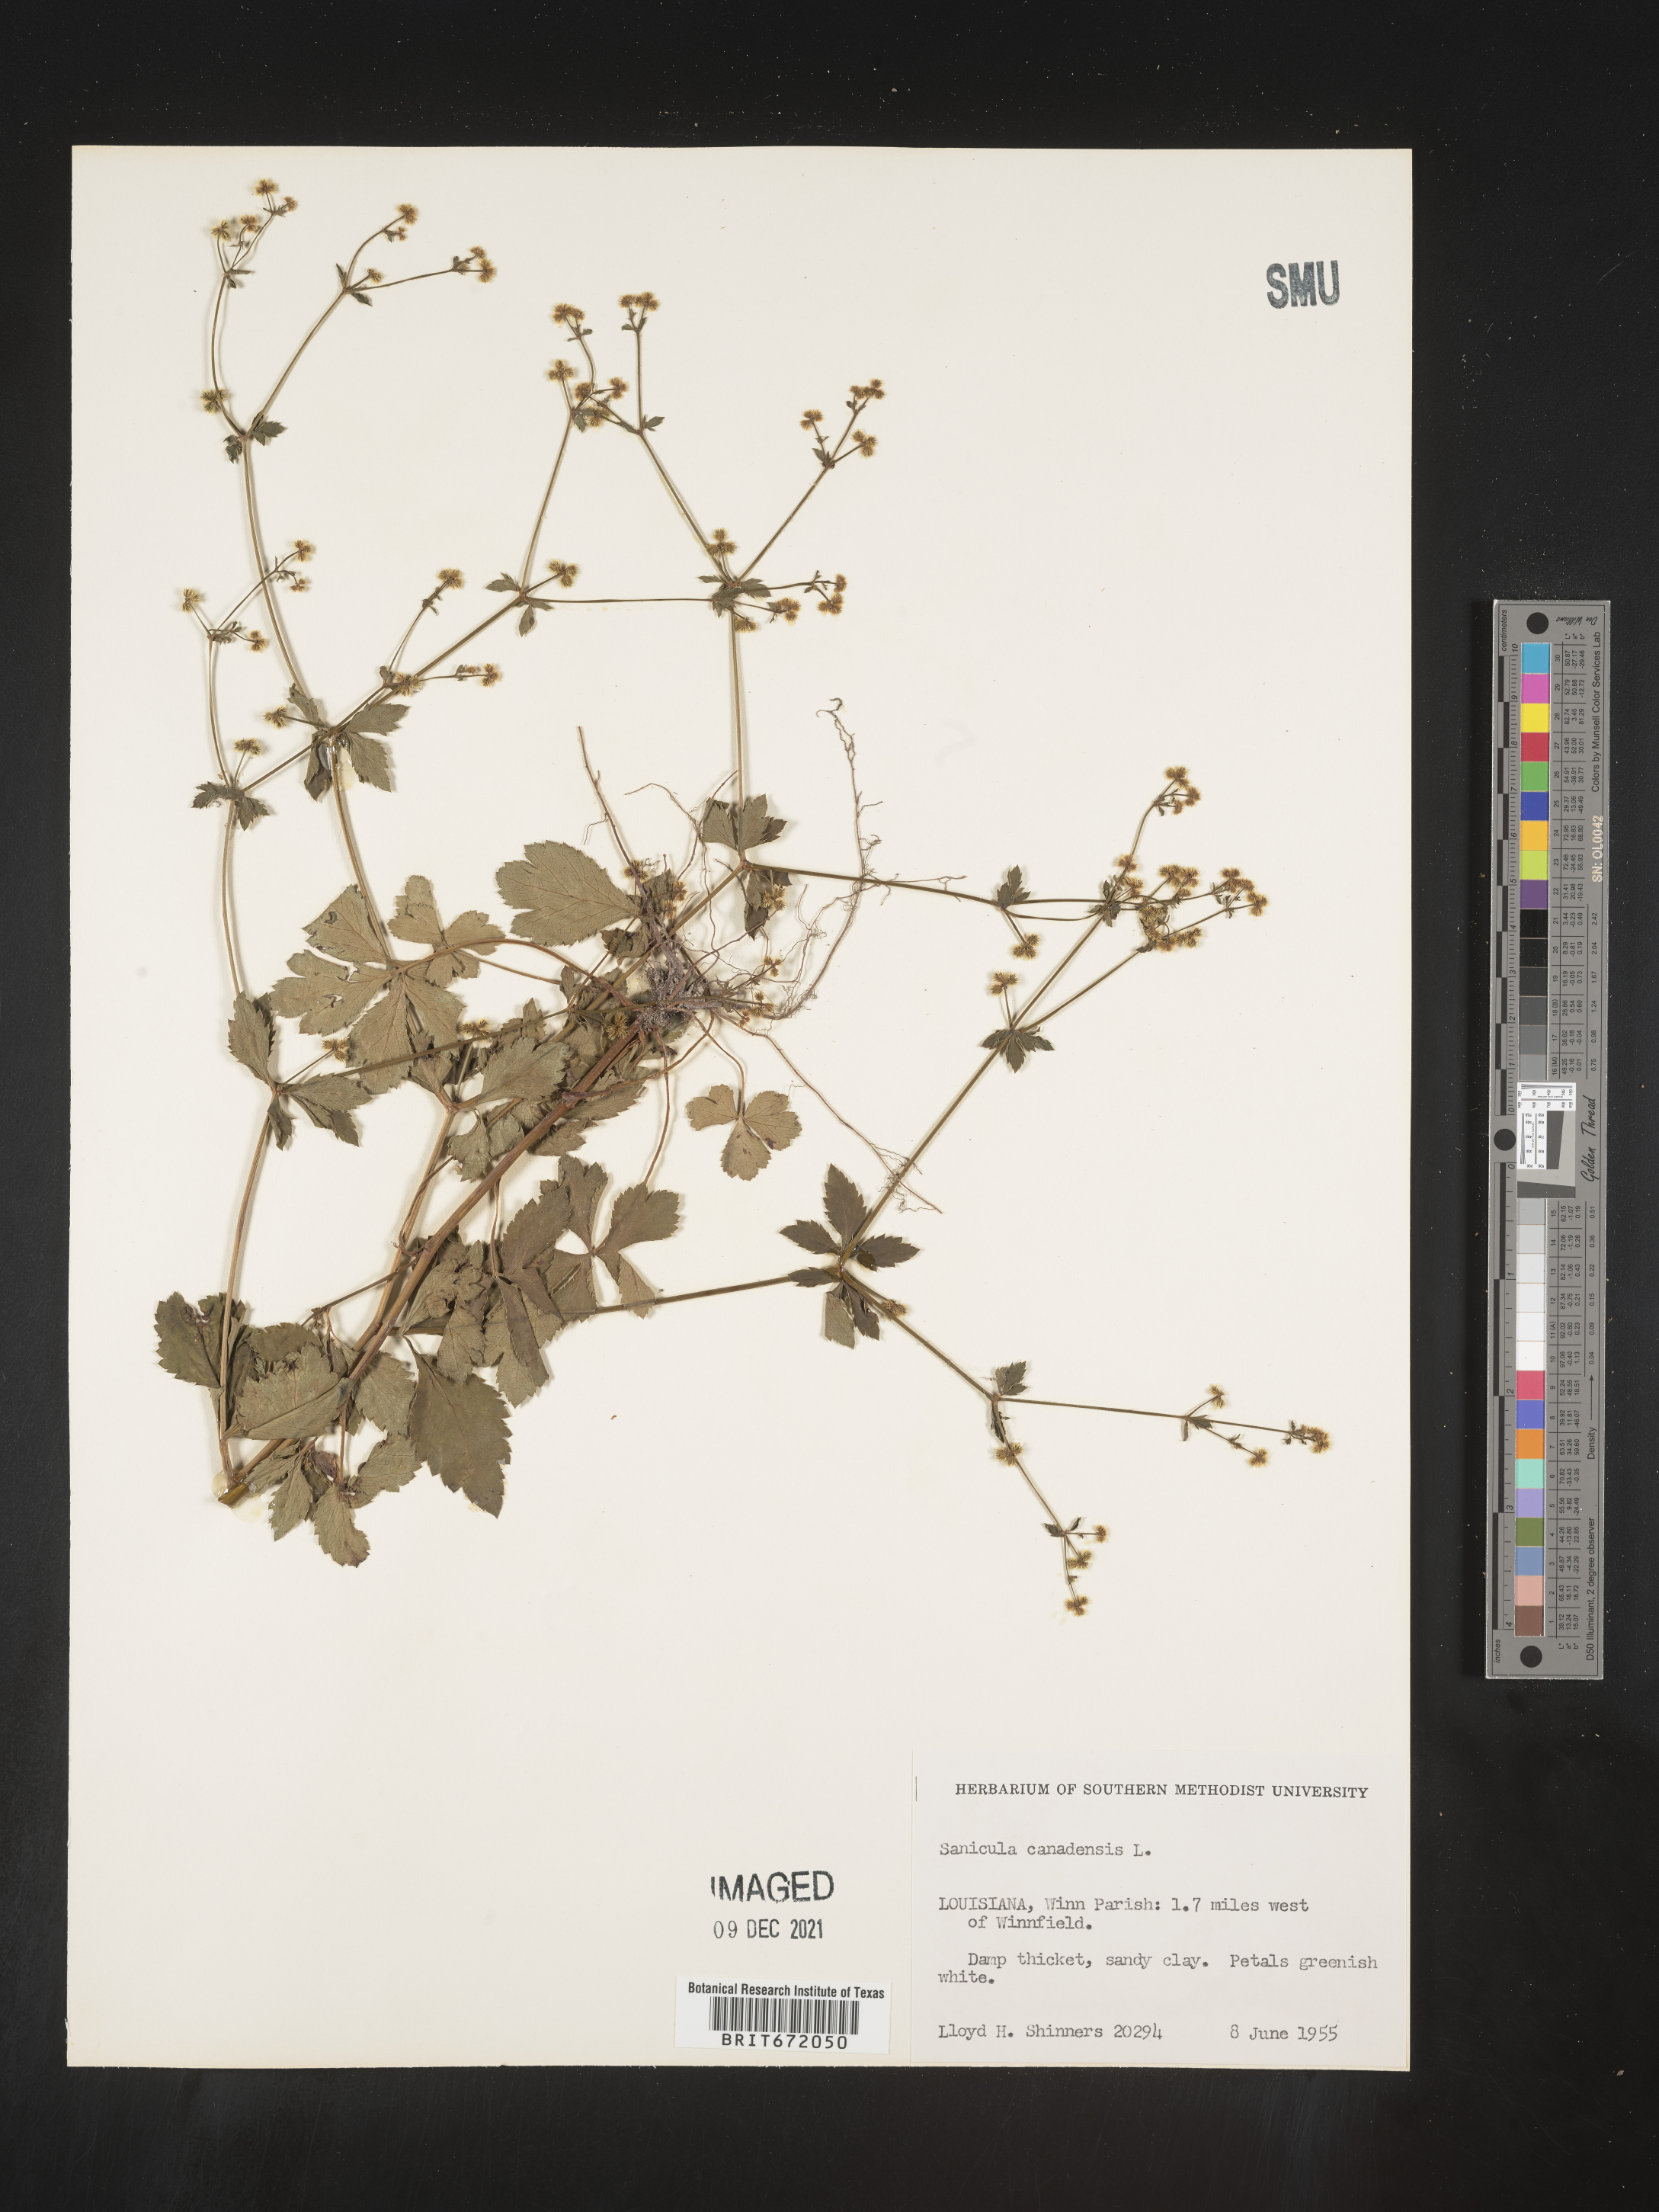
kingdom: Plantae
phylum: Tracheophyta
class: Magnoliopsida
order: Apiales
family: Apiaceae
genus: Sanicula
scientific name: Sanicula canadensis
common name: Canada sanicle
